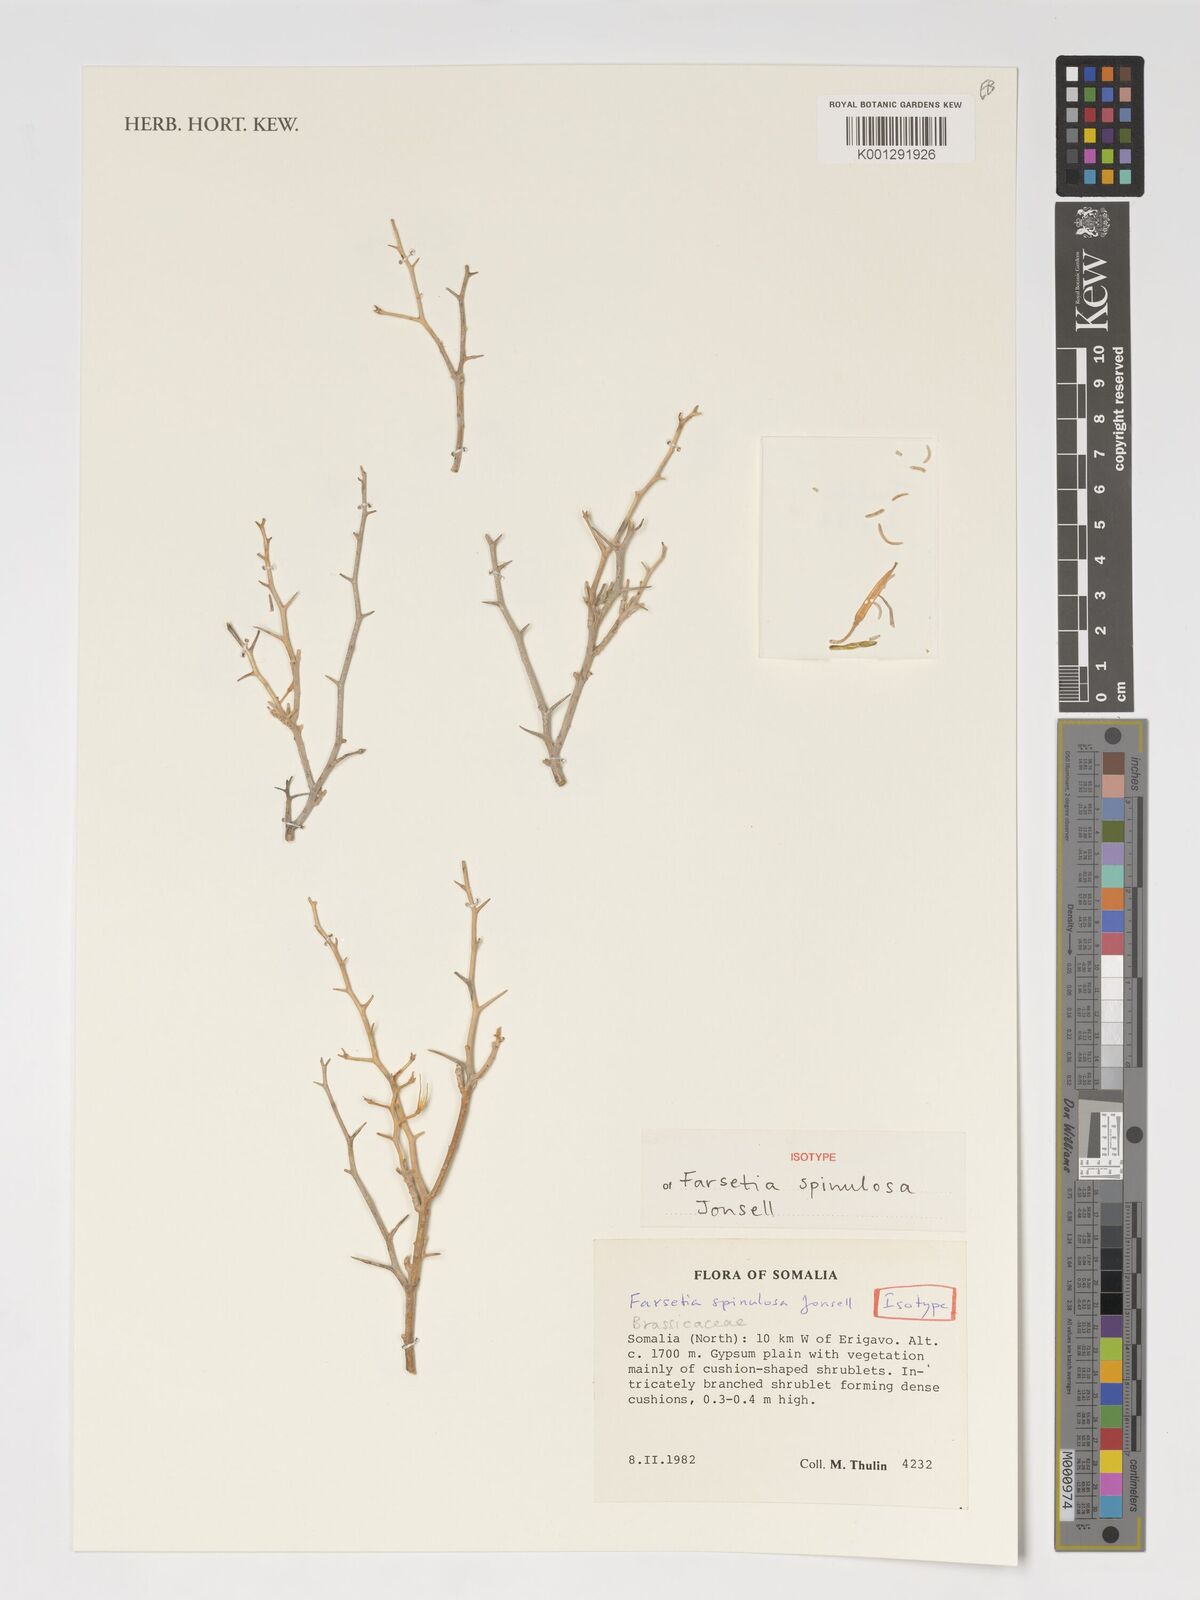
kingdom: Plantae
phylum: Tracheophyta
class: Magnoliopsida
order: Brassicales
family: Brassicaceae
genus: Farsetia
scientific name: Farsetia spinulosa
